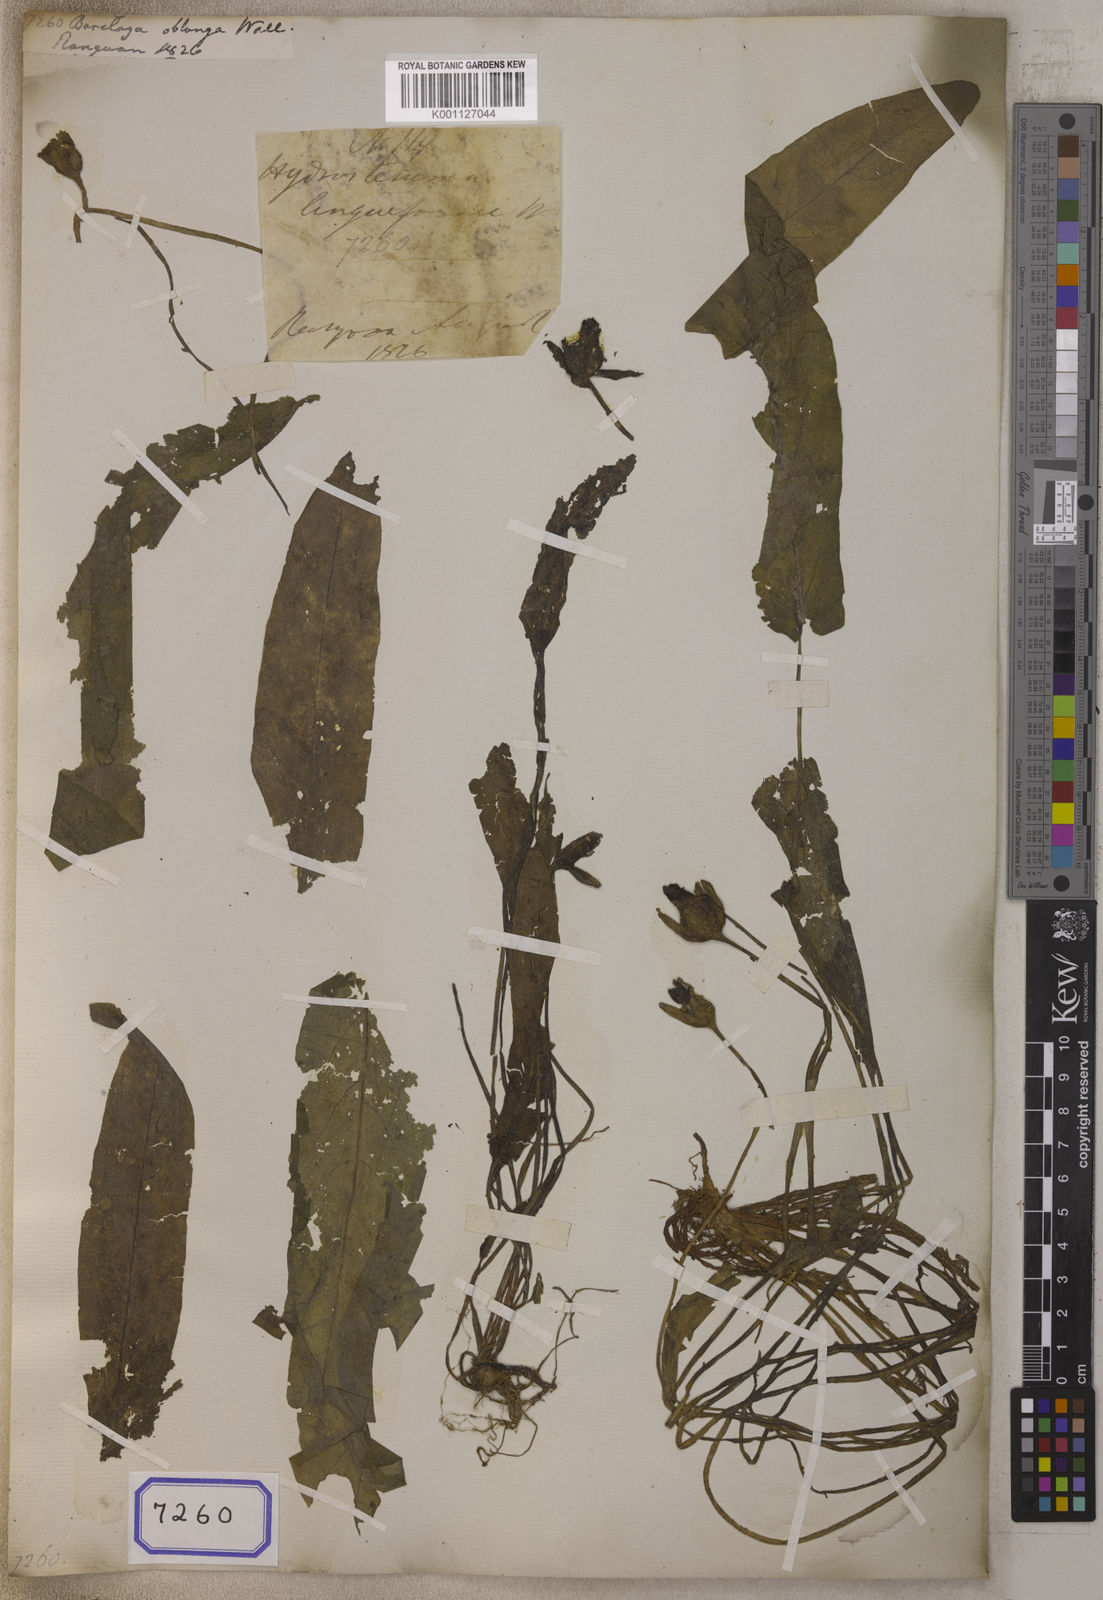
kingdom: Plantae
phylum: Tracheophyta
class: Magnoliopsida
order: Nymphaeales
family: Nymphaeaceae
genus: Barclaya
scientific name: Barclaya longifolia
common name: Orchid lily
